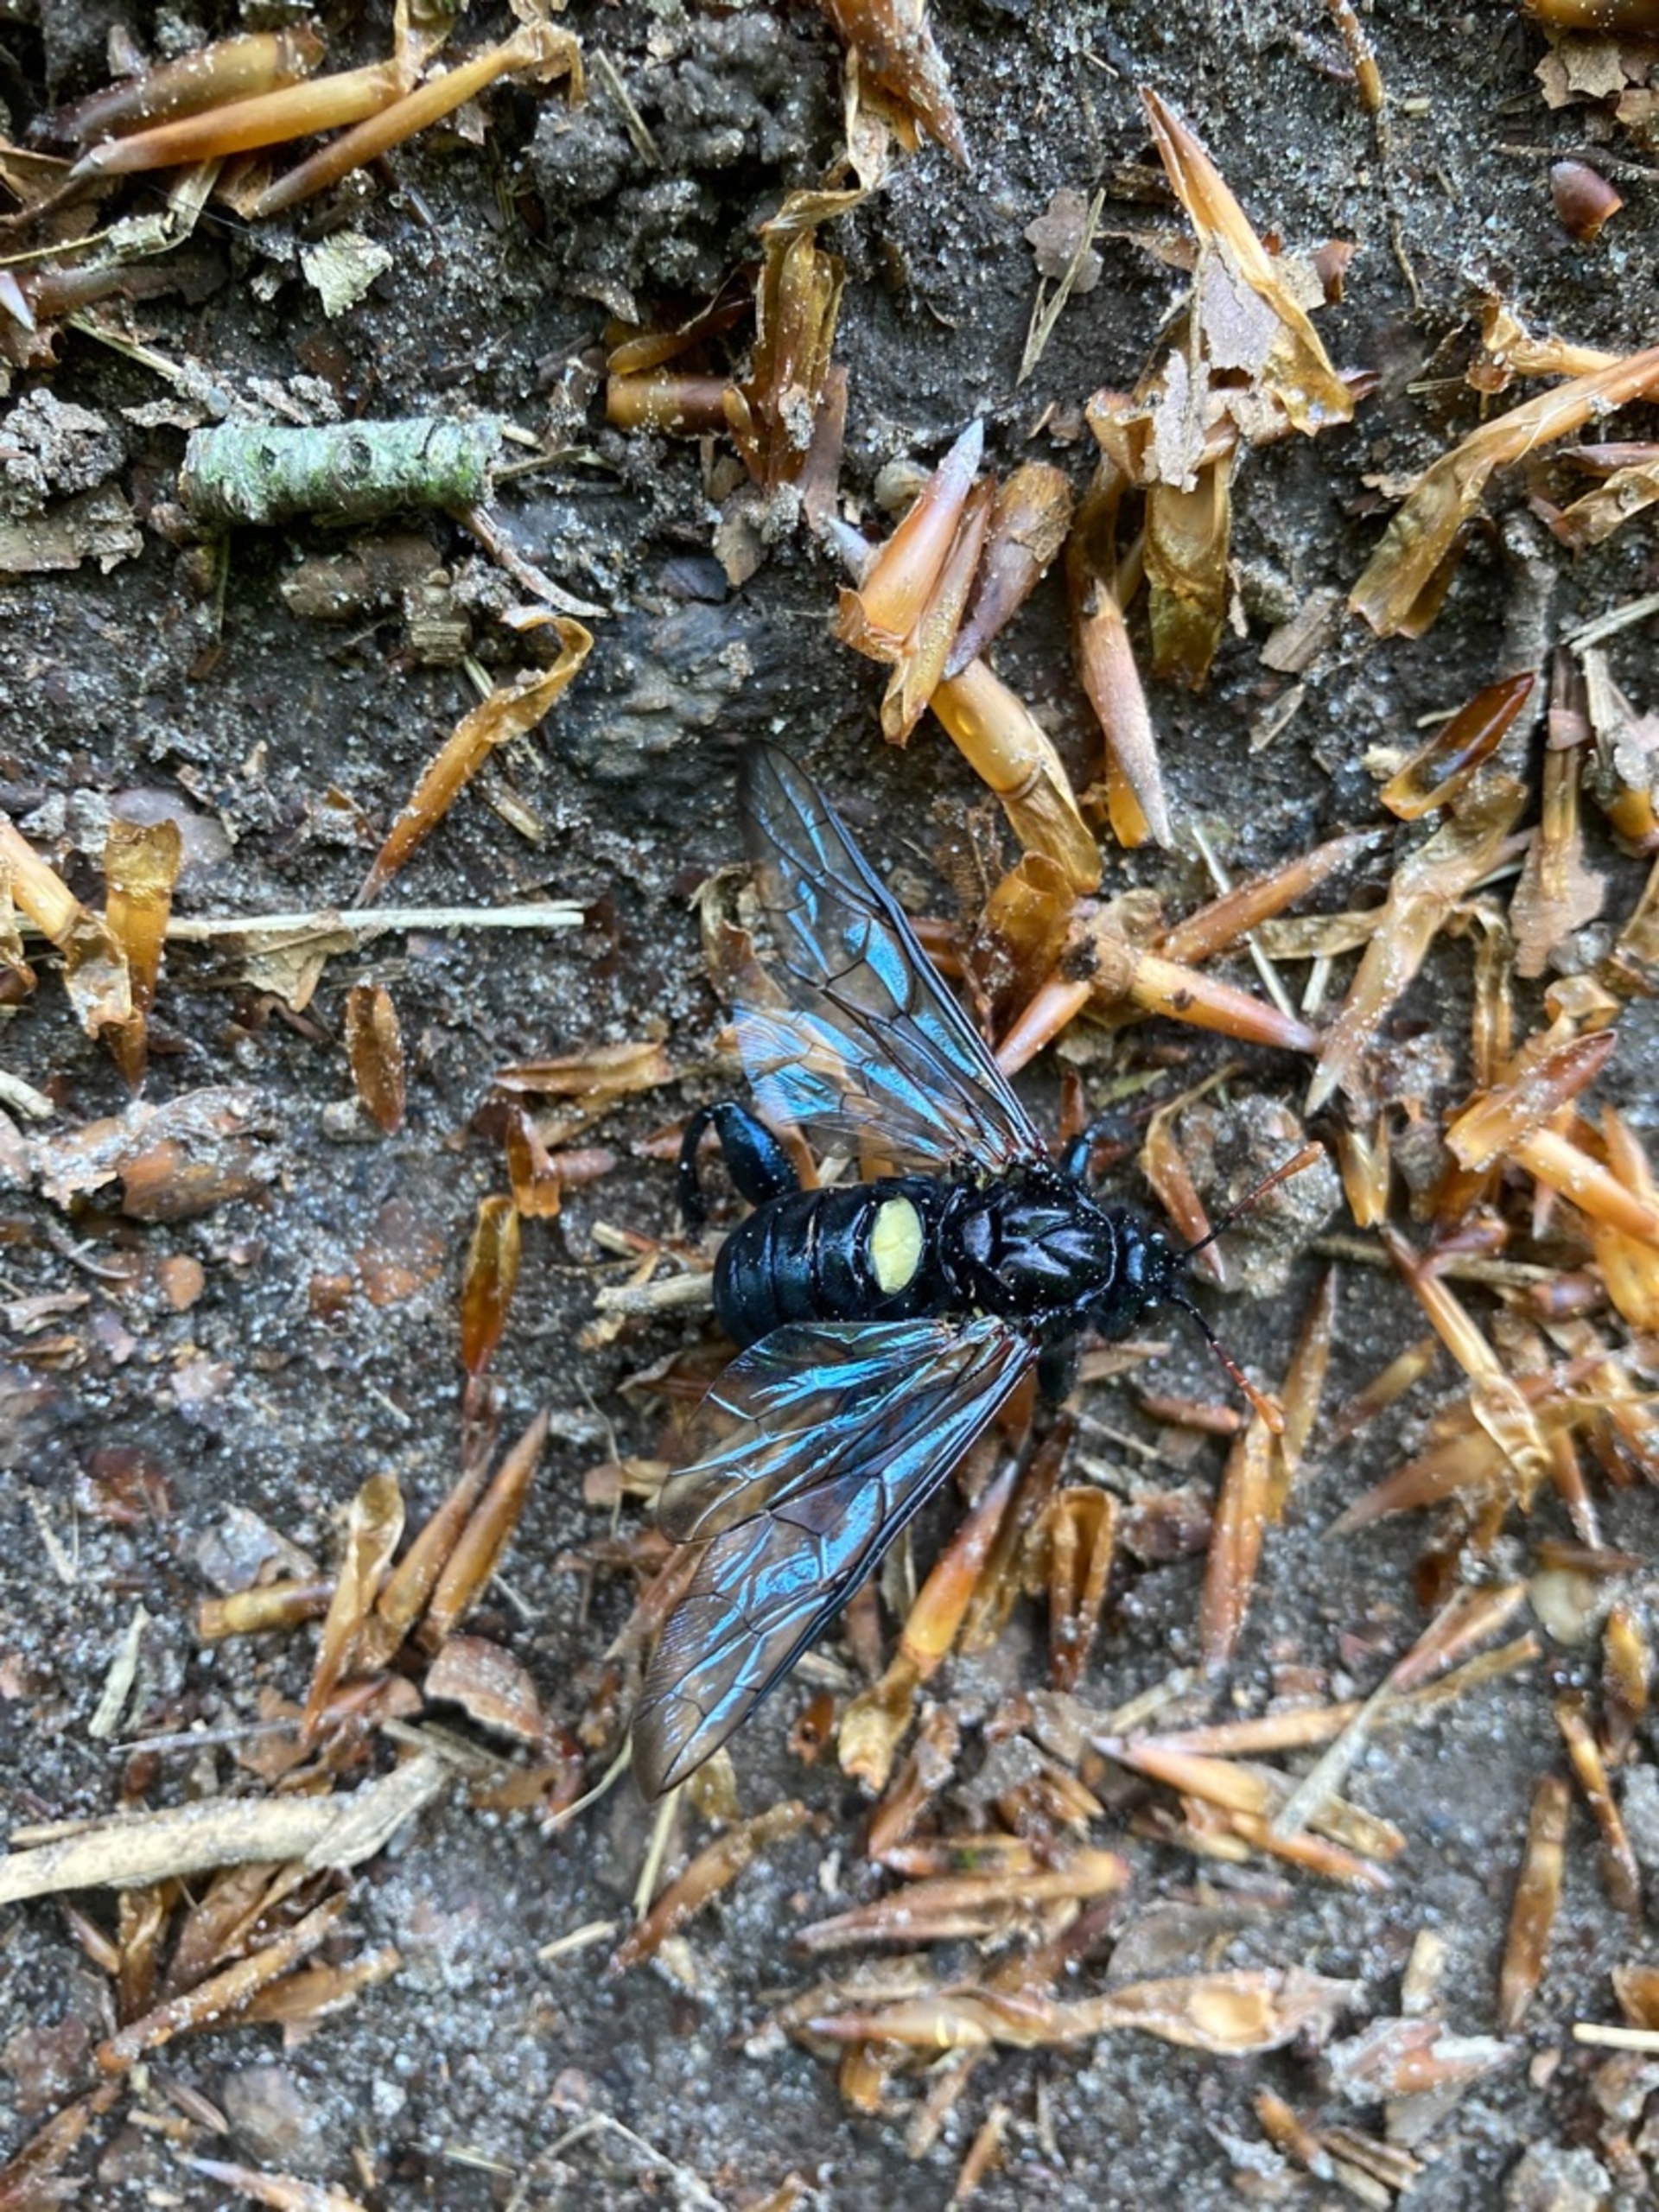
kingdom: Animalia
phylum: Arthropoda
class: Insecta
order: Hymenoptera
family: Cimbicidae
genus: Cimbex
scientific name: Cimbex femoratus
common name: Stor bladhveps
